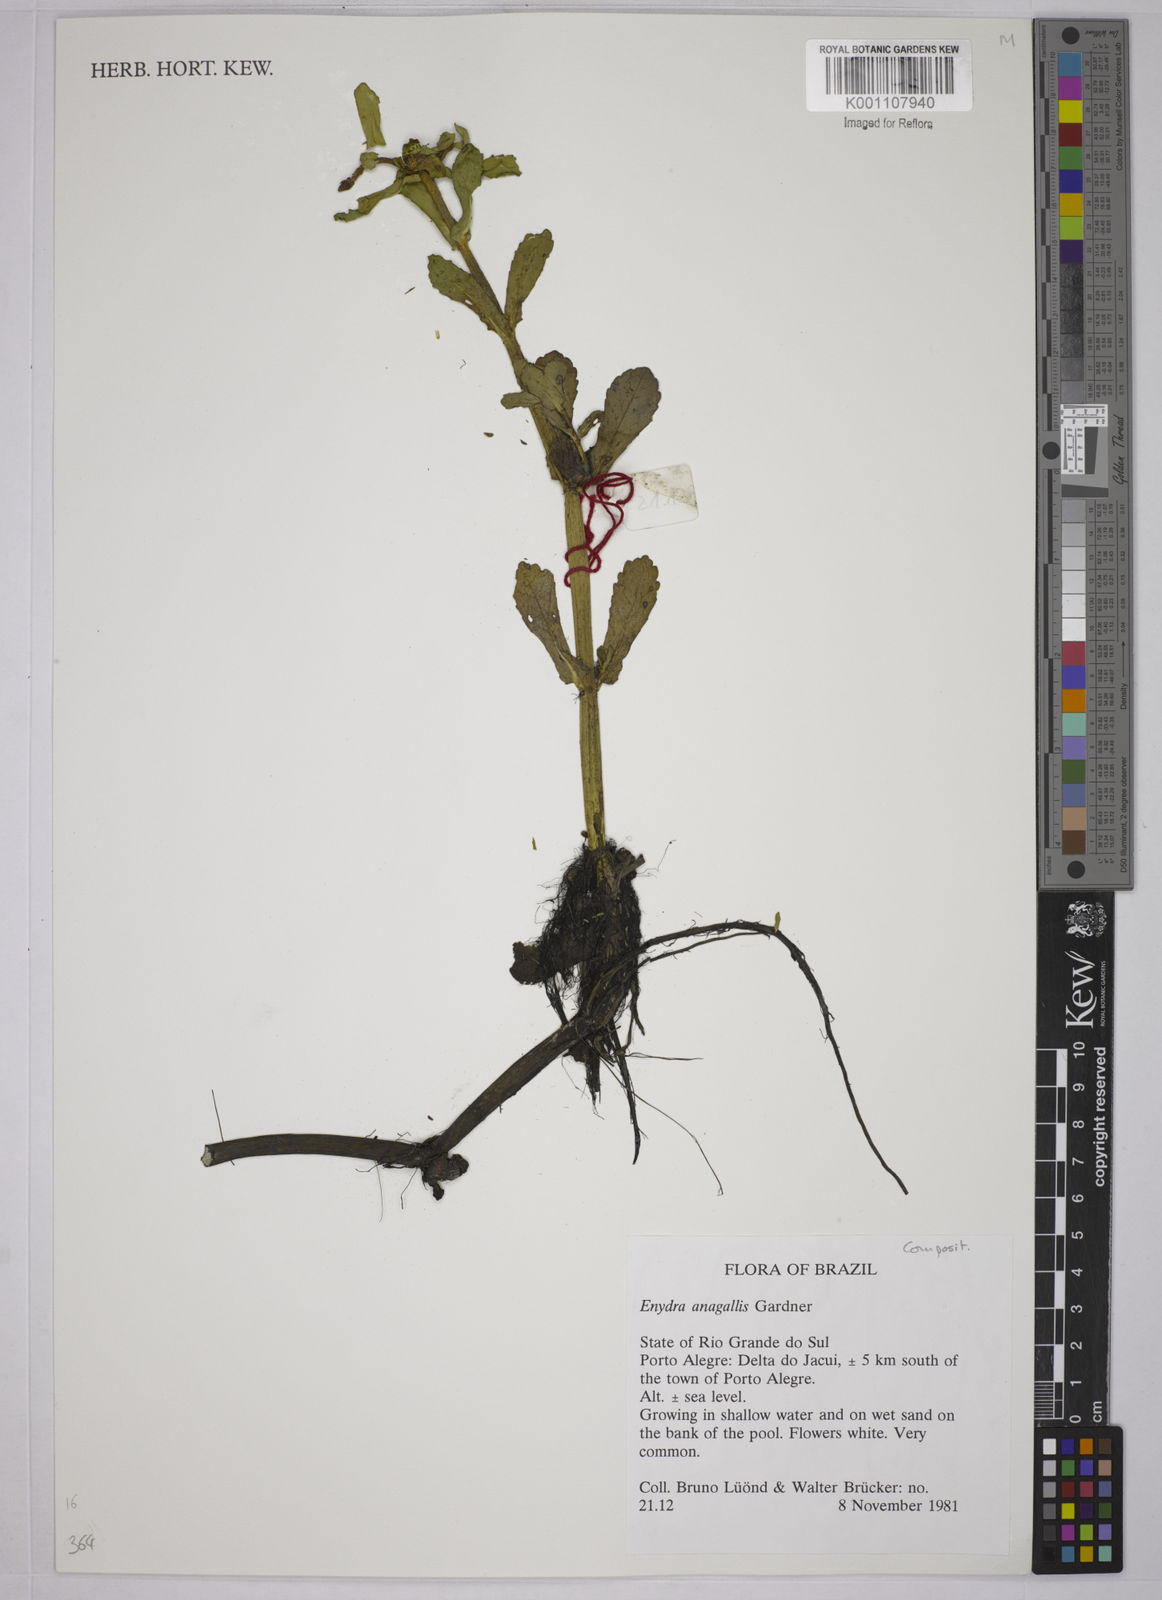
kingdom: Plantae
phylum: Tracheophyta
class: Magnoliopsida
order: Asterales
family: Asteraceae
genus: Enydra
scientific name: Enydra fluctuans
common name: Buffalo spinach
